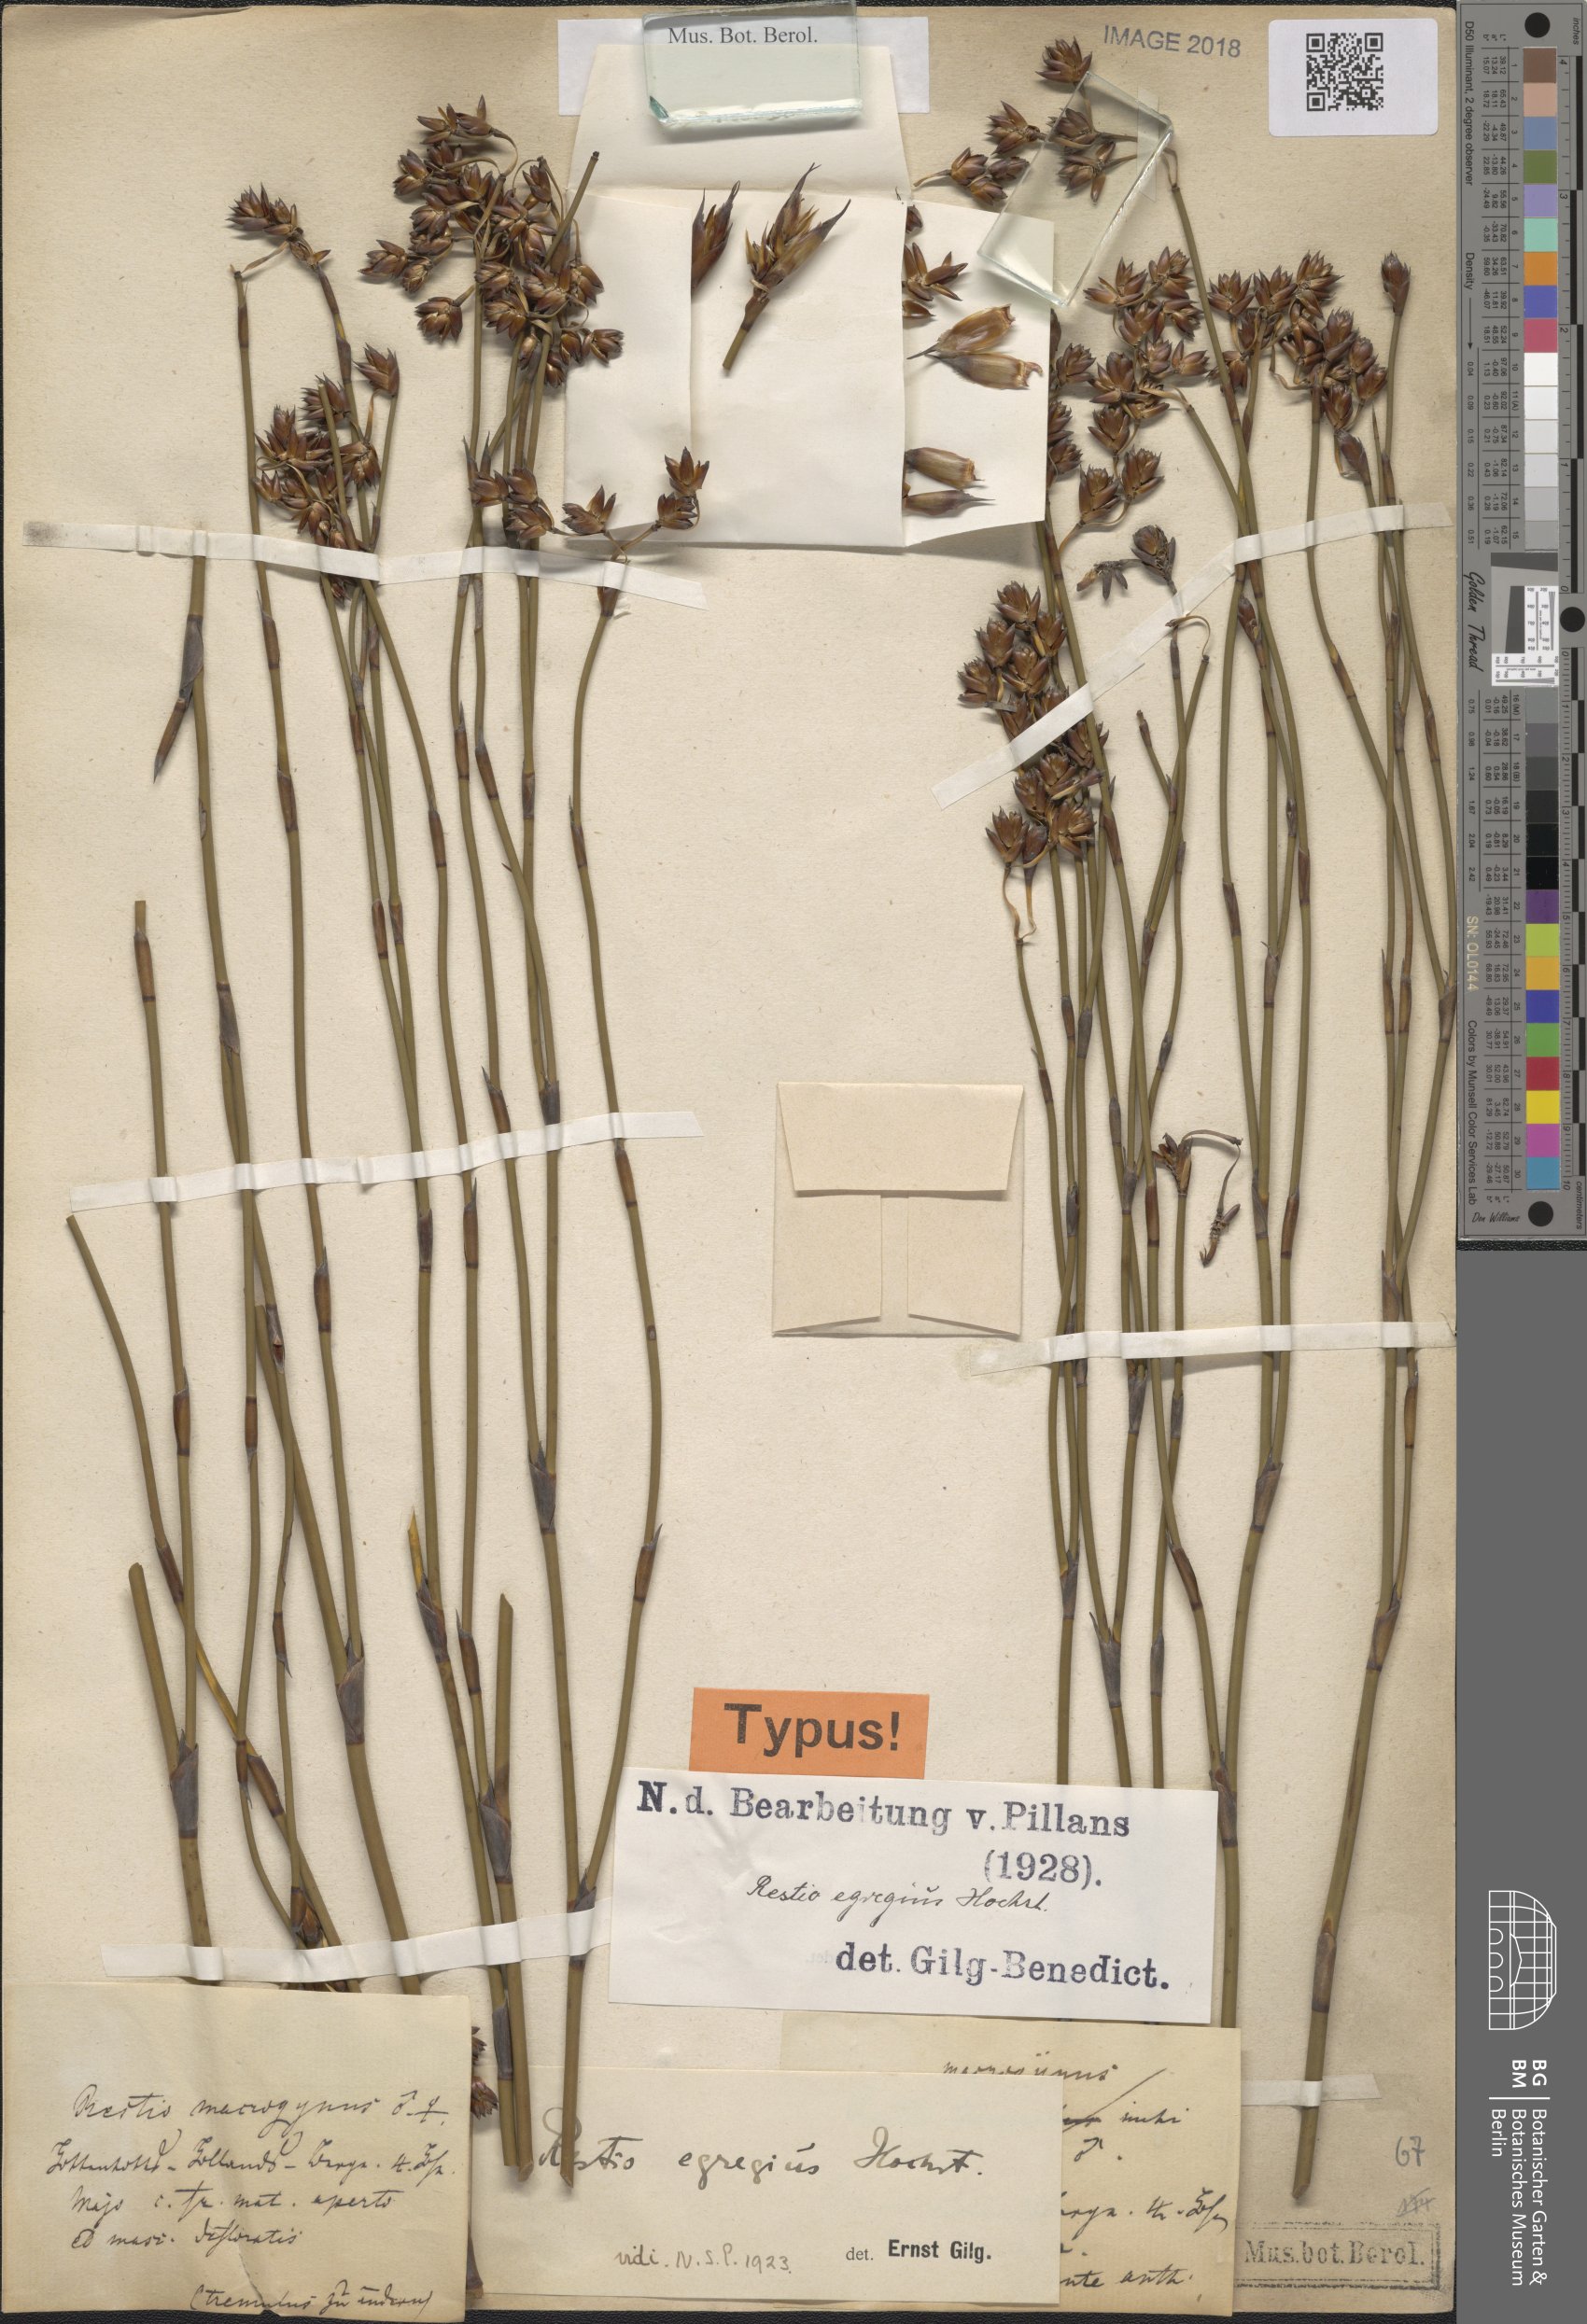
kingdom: Plantae
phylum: Tracheophyta
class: Liliopsida
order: Poales
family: Restionaceae
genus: Restio
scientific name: Restio egregius
